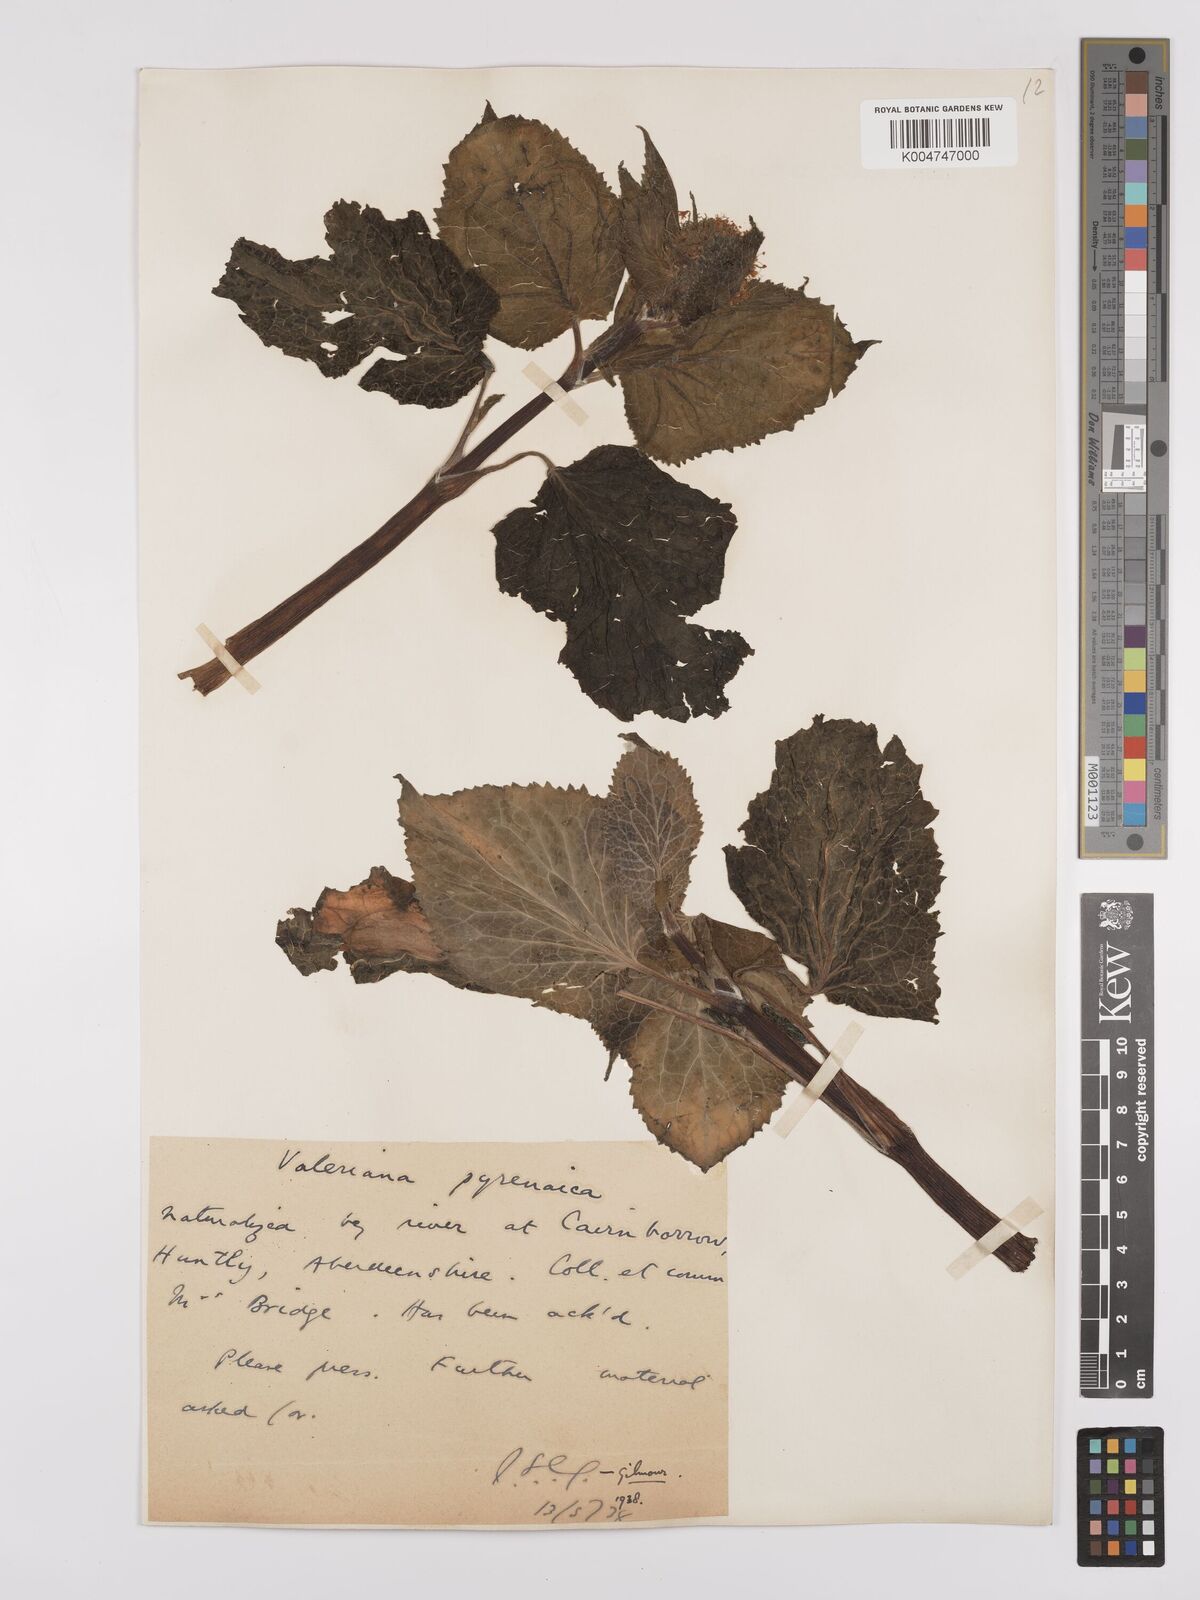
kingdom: Plantae
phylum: Tracheophyta
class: Magnoliopsida
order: Dipsacales
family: Caprifoliaceae
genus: Valeriana
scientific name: Valeriana pyrenaica
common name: Pyrenean valerian
